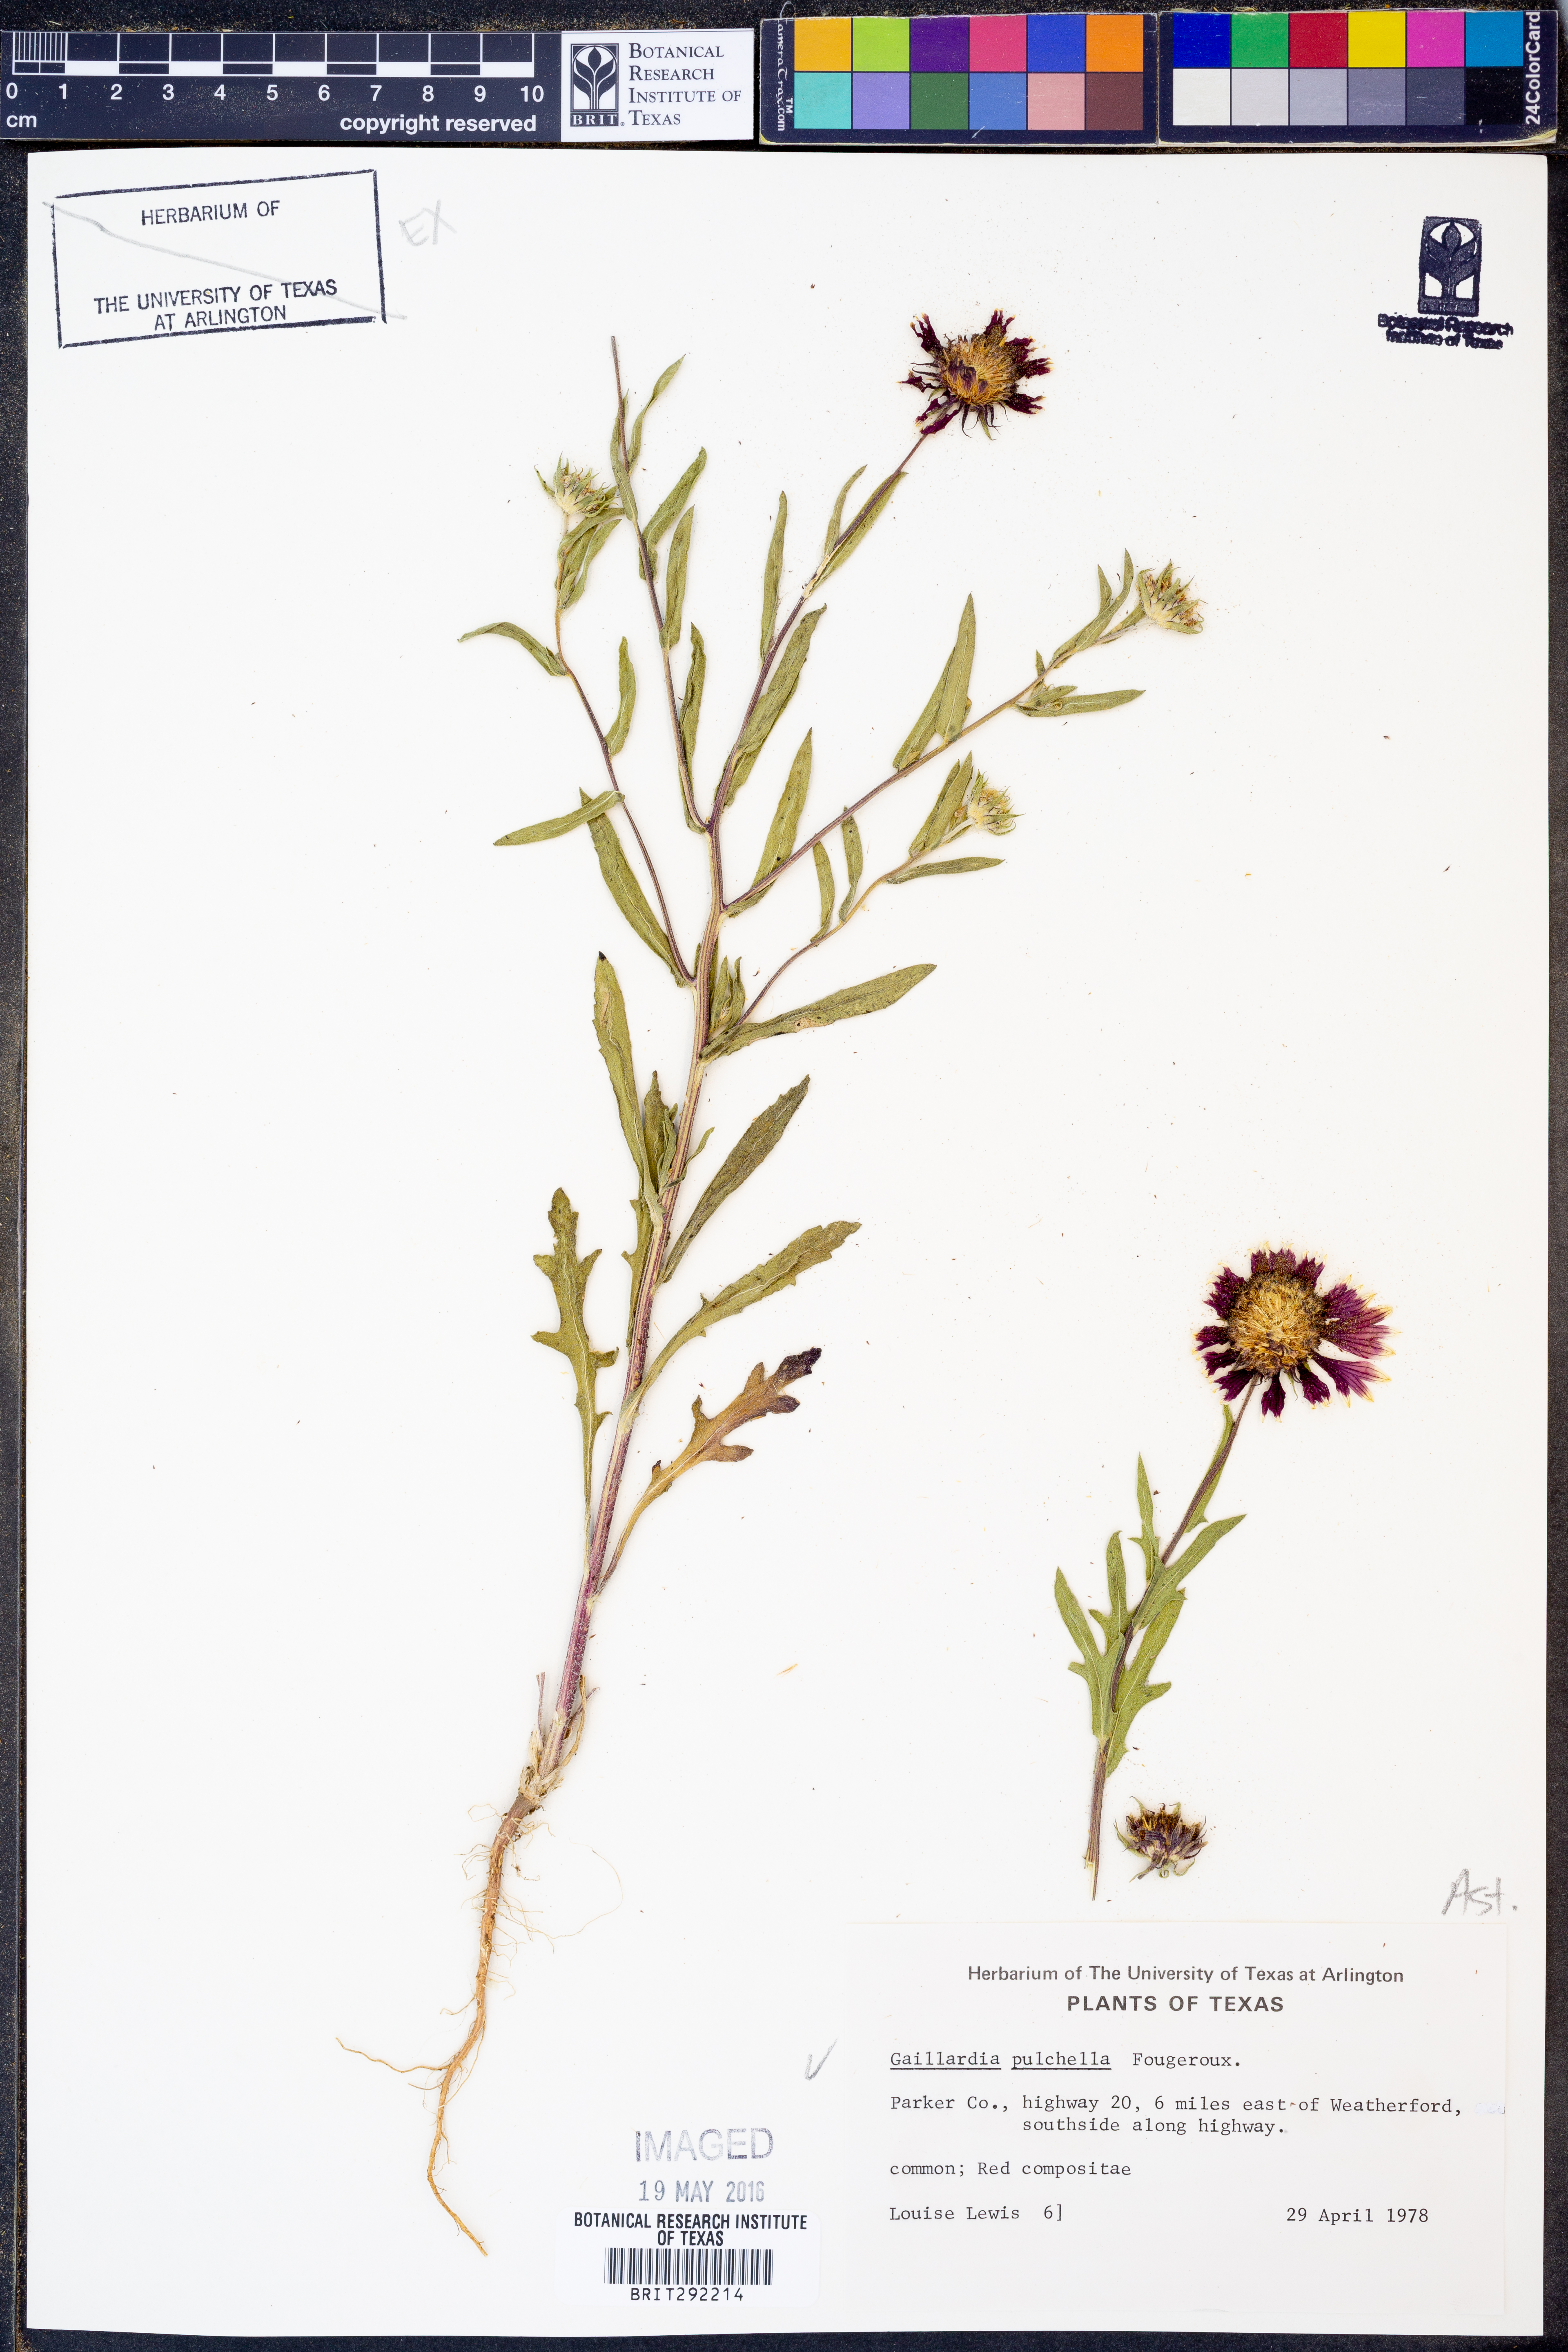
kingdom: Plantae
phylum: Tracheophyta
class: Magnoliopsida
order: Asterales
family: Asteraceae
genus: Gaillardia
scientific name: Gaillardia pulchella
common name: Firewheel
